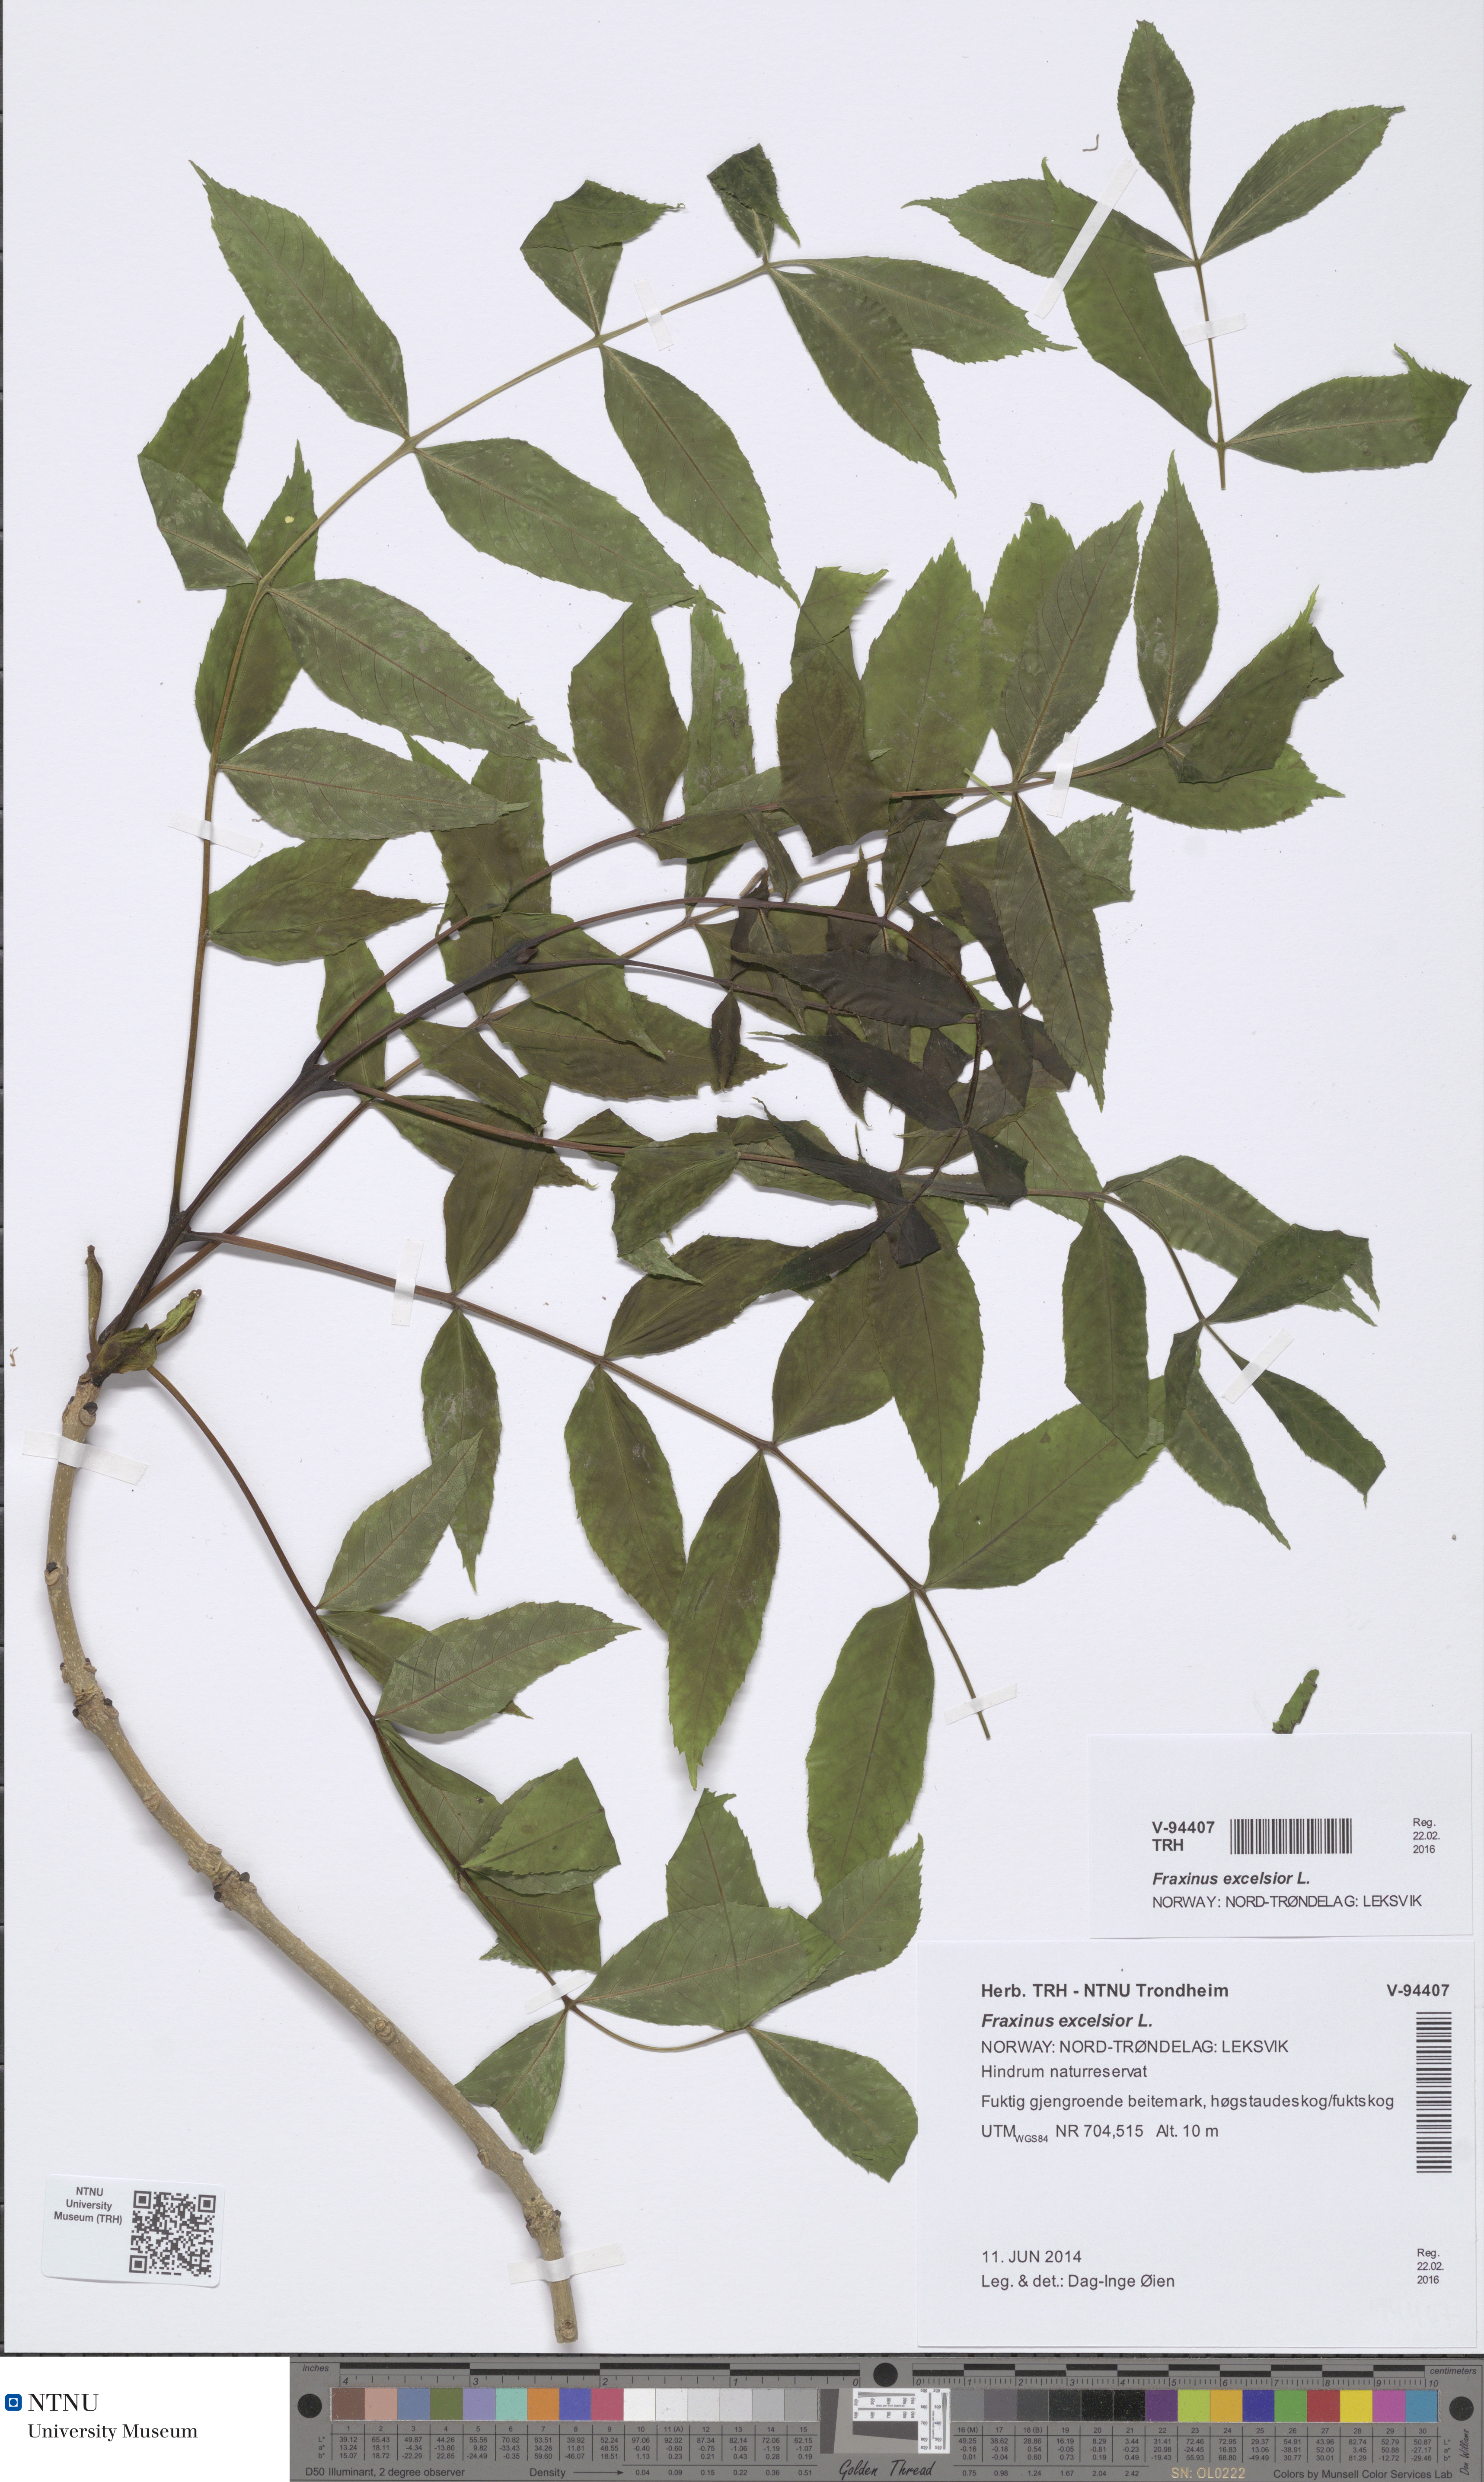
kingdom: Plantae
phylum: Tracheophyta
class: Magnoliopsida
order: Lamiales
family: Oleaceae
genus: Fraxinus
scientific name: Fraxinus excelsior
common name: European ash
